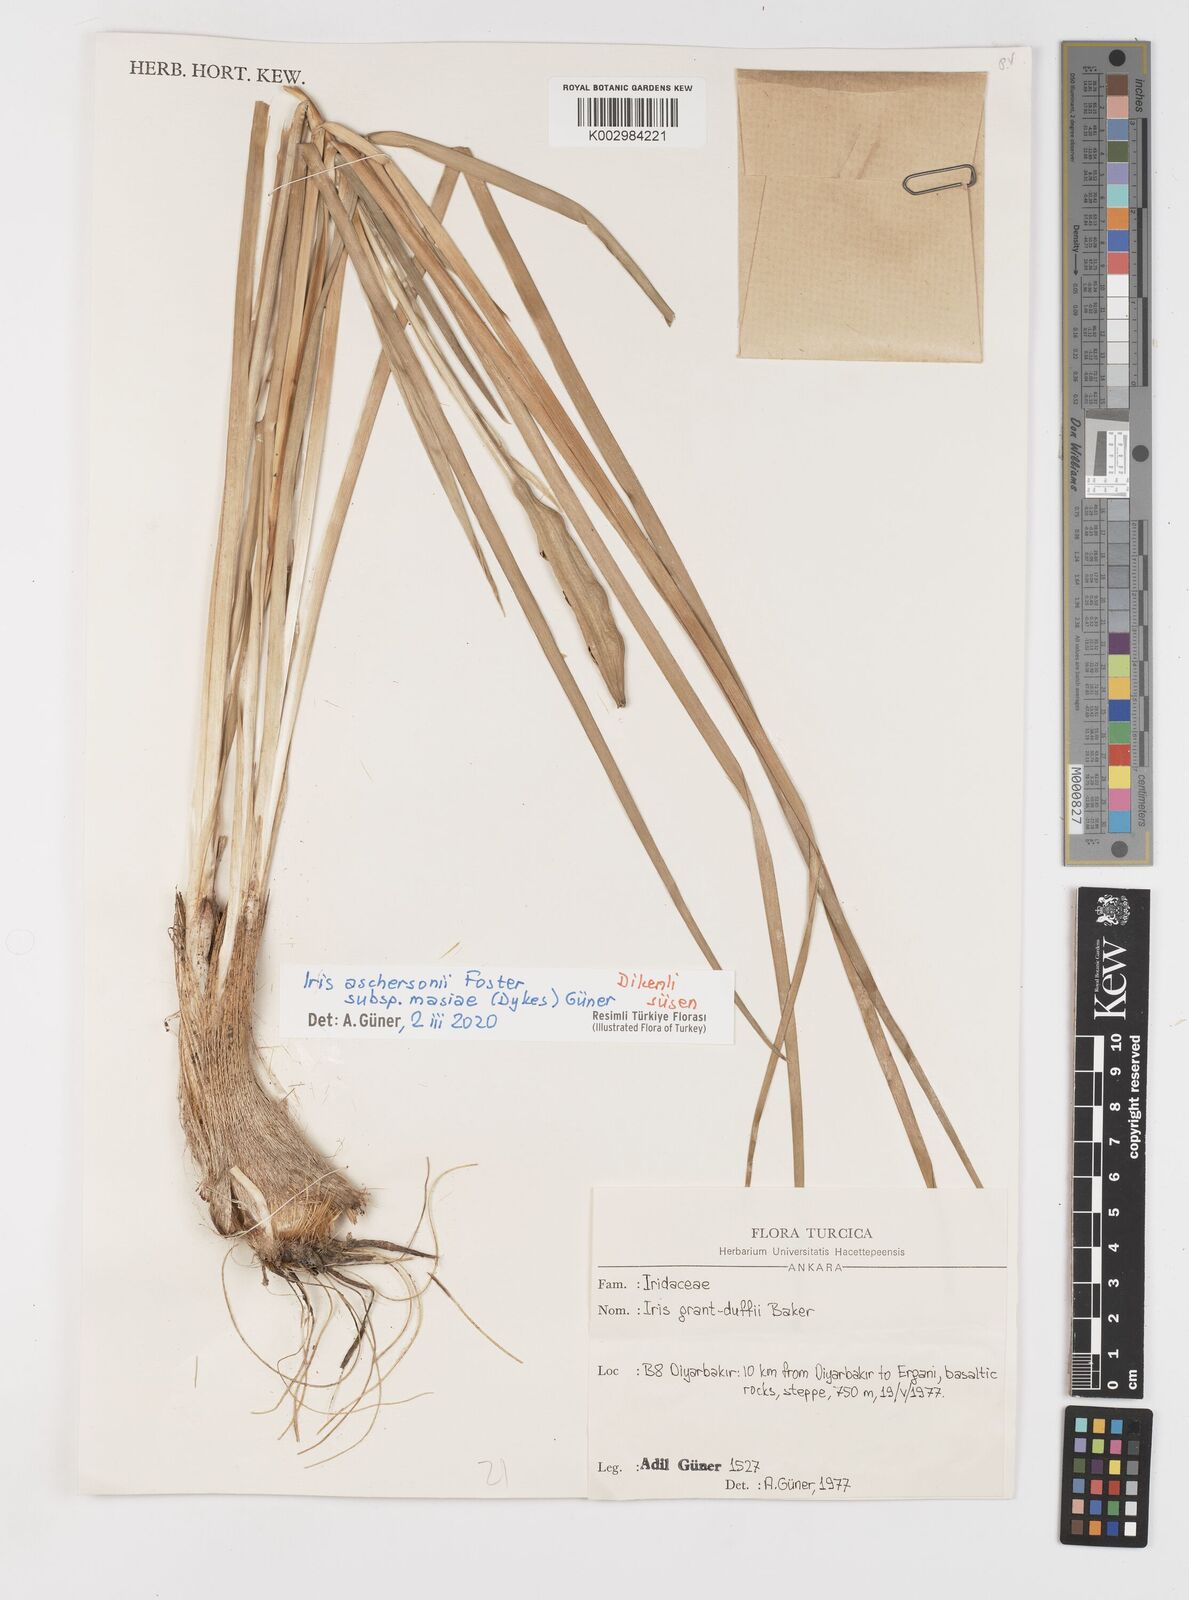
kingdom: Plantae
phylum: Tracheophyta
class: Liliopsida
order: Asparagales
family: Iridaceae
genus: Iris
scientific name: Iris grant-duffii
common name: Grant duff's iris
